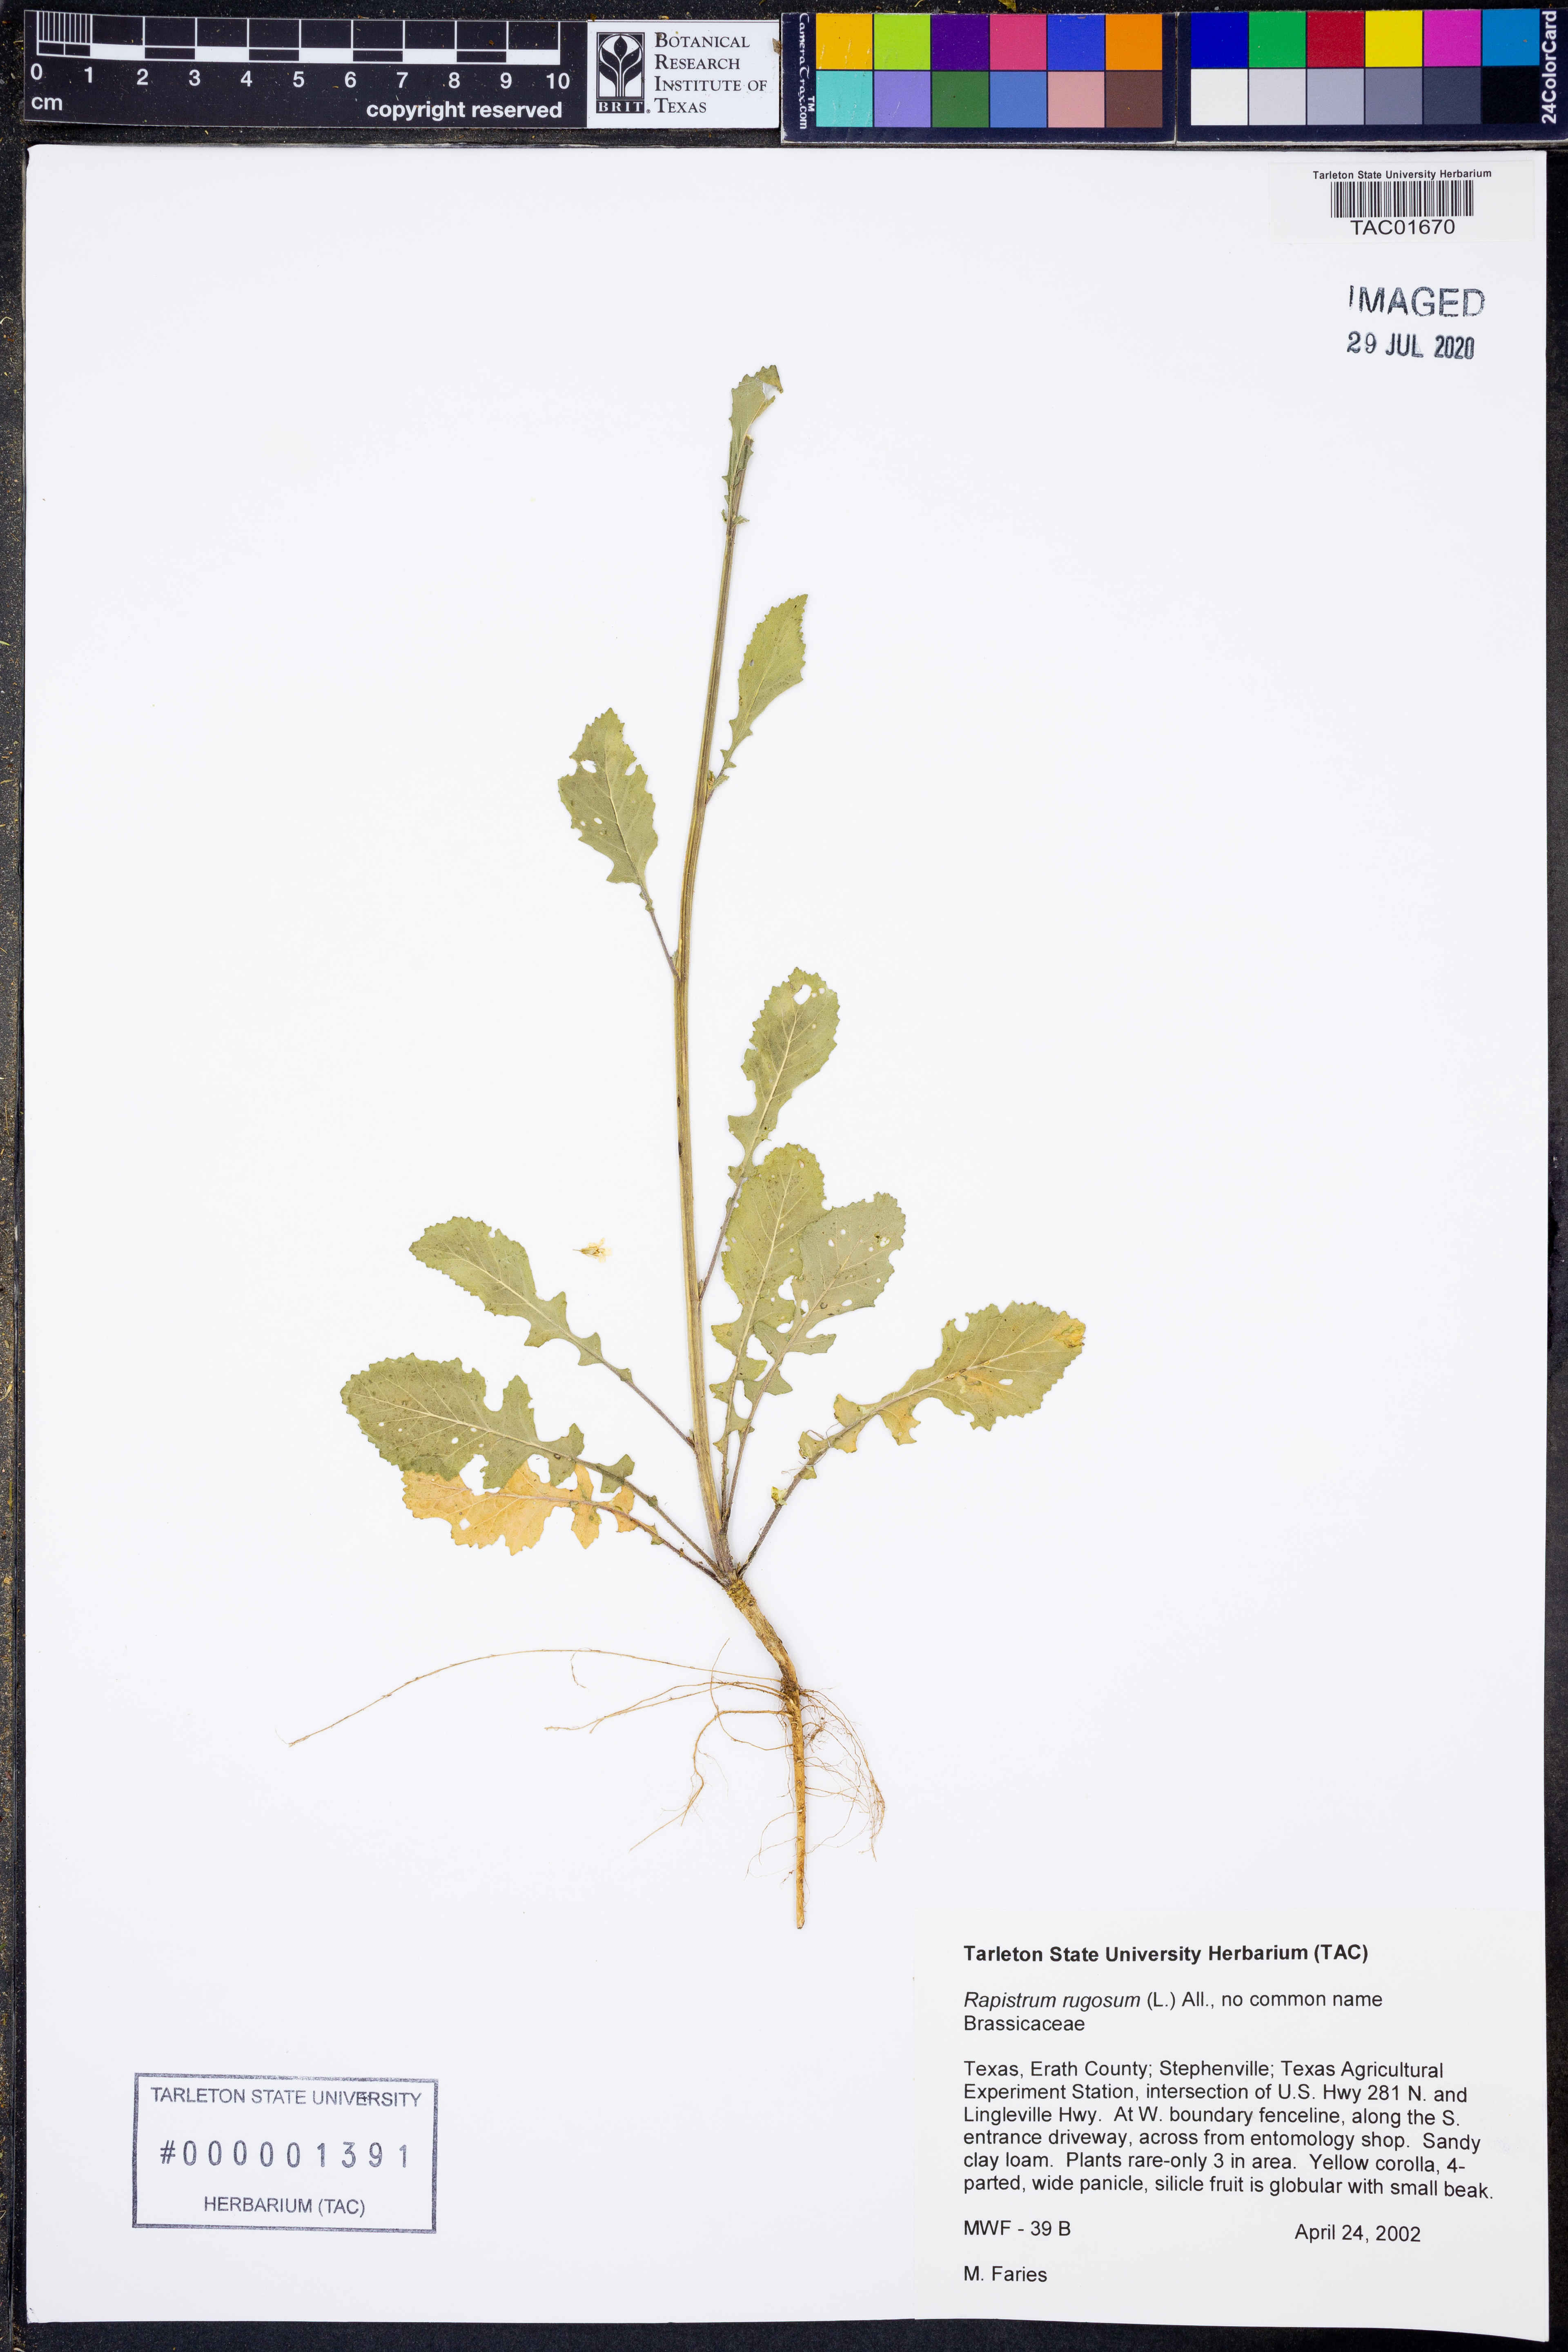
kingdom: Plantae
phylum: Tracheophyta
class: Magnoliopsida
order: Brassicales
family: Brassicaceae
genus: Rapistrum
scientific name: Rapistrum rugosum
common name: Annual bastardcabbage
